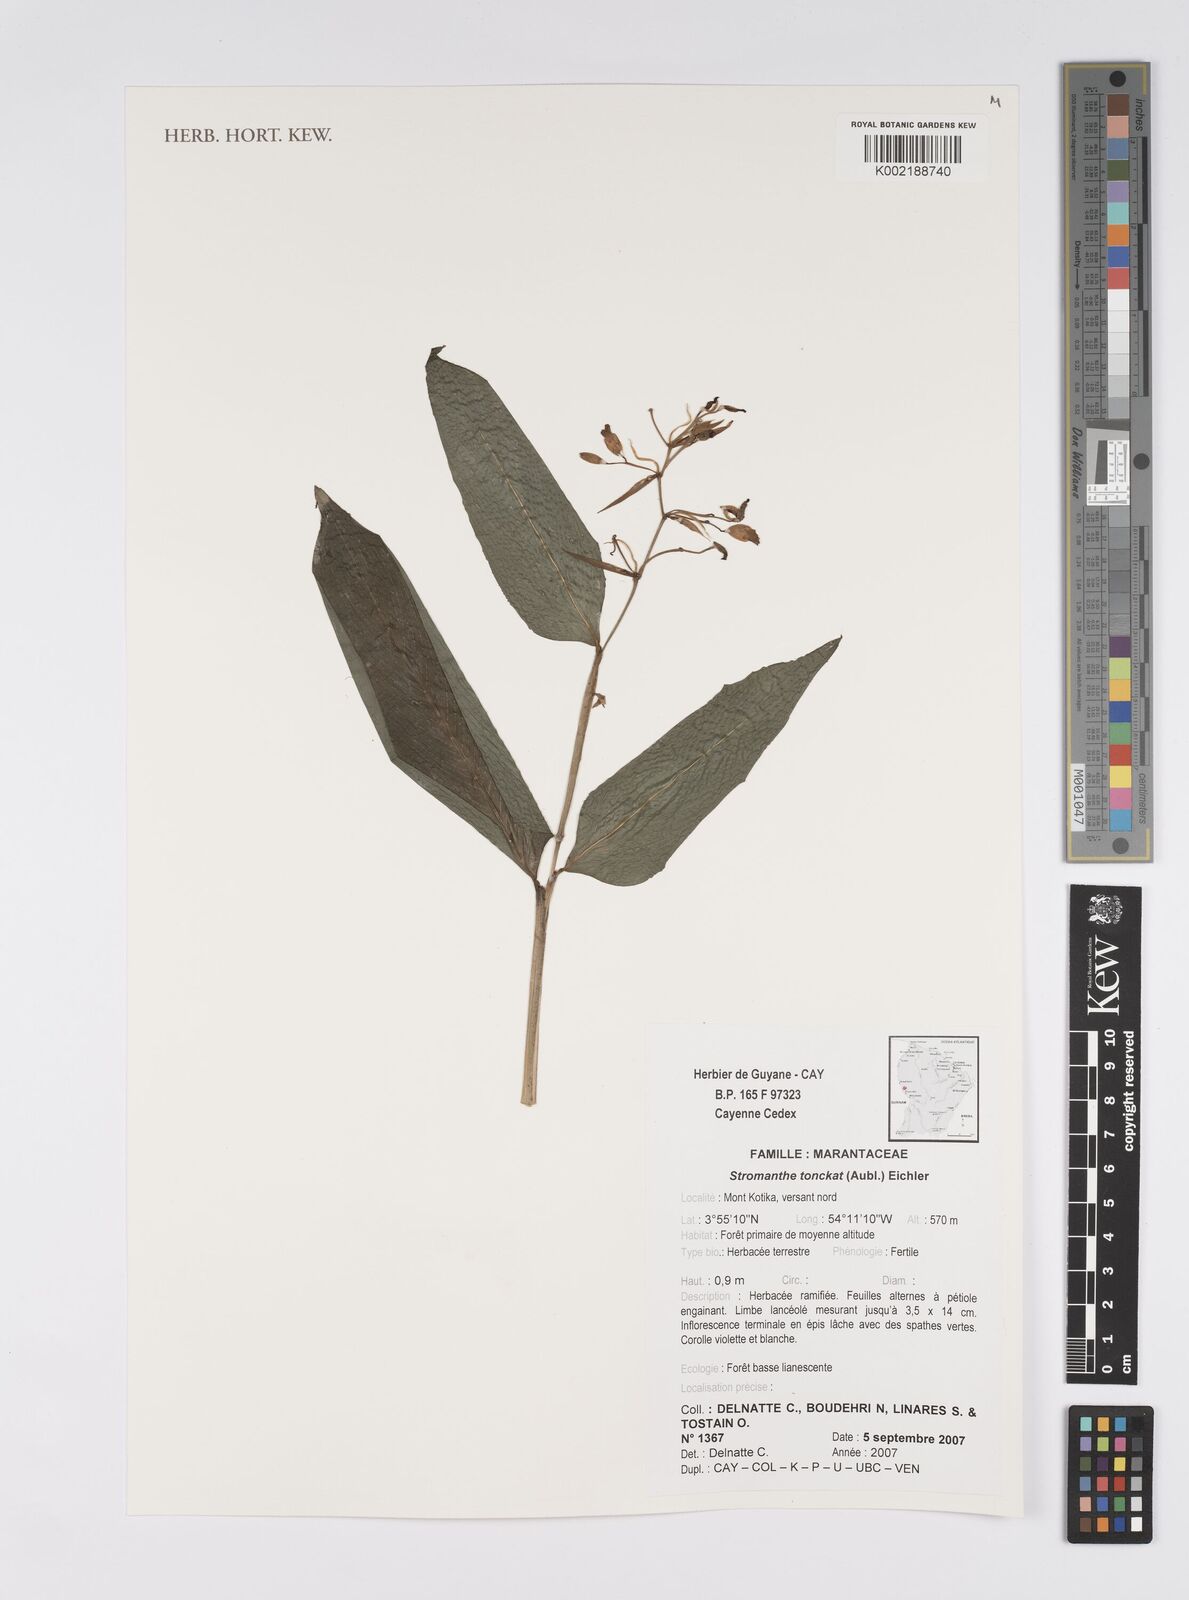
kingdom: Plantae
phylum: Tracheophyta
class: Liliopsida
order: Zingiberales
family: Marantaceae
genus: Stromanthe
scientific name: Stromanthe tonckat
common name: Stromanthe
